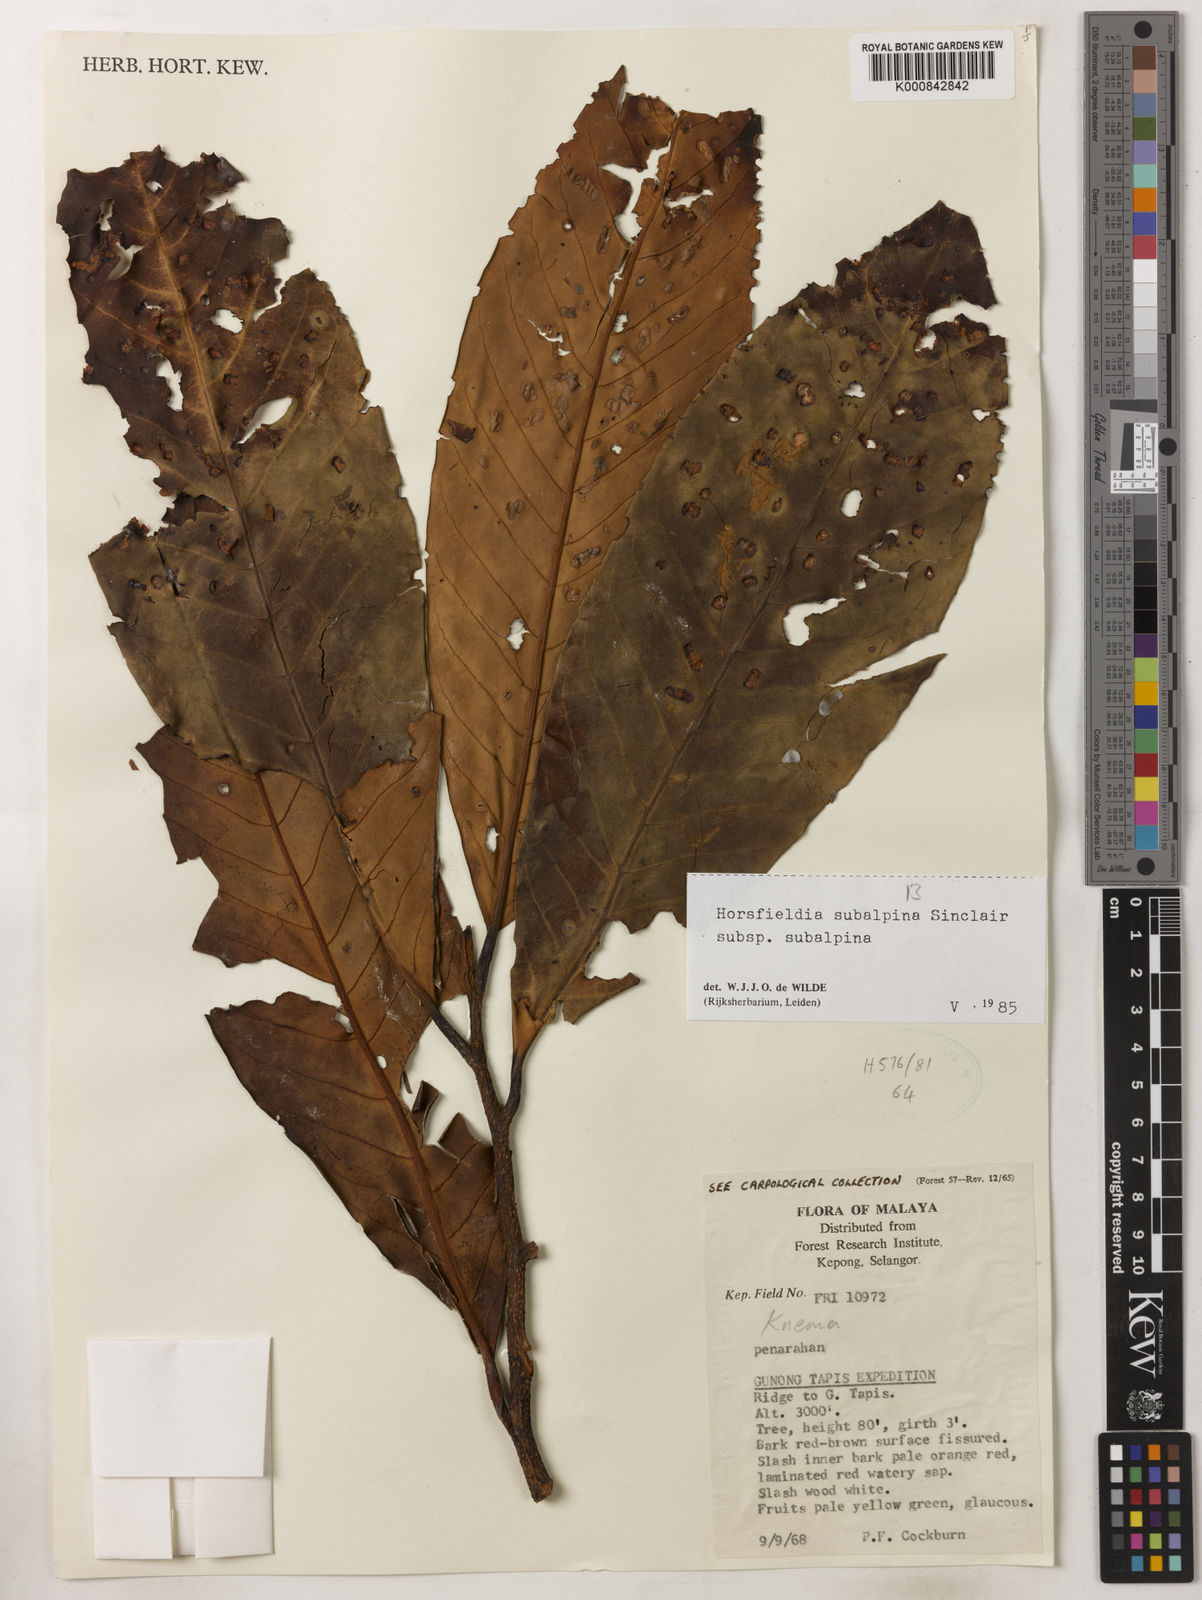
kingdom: Plantae
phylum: Tracheophyta
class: Magnoliopsida
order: Magnoliales
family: Myristicaceae
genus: Horsfieldia
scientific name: Horsfieldia
